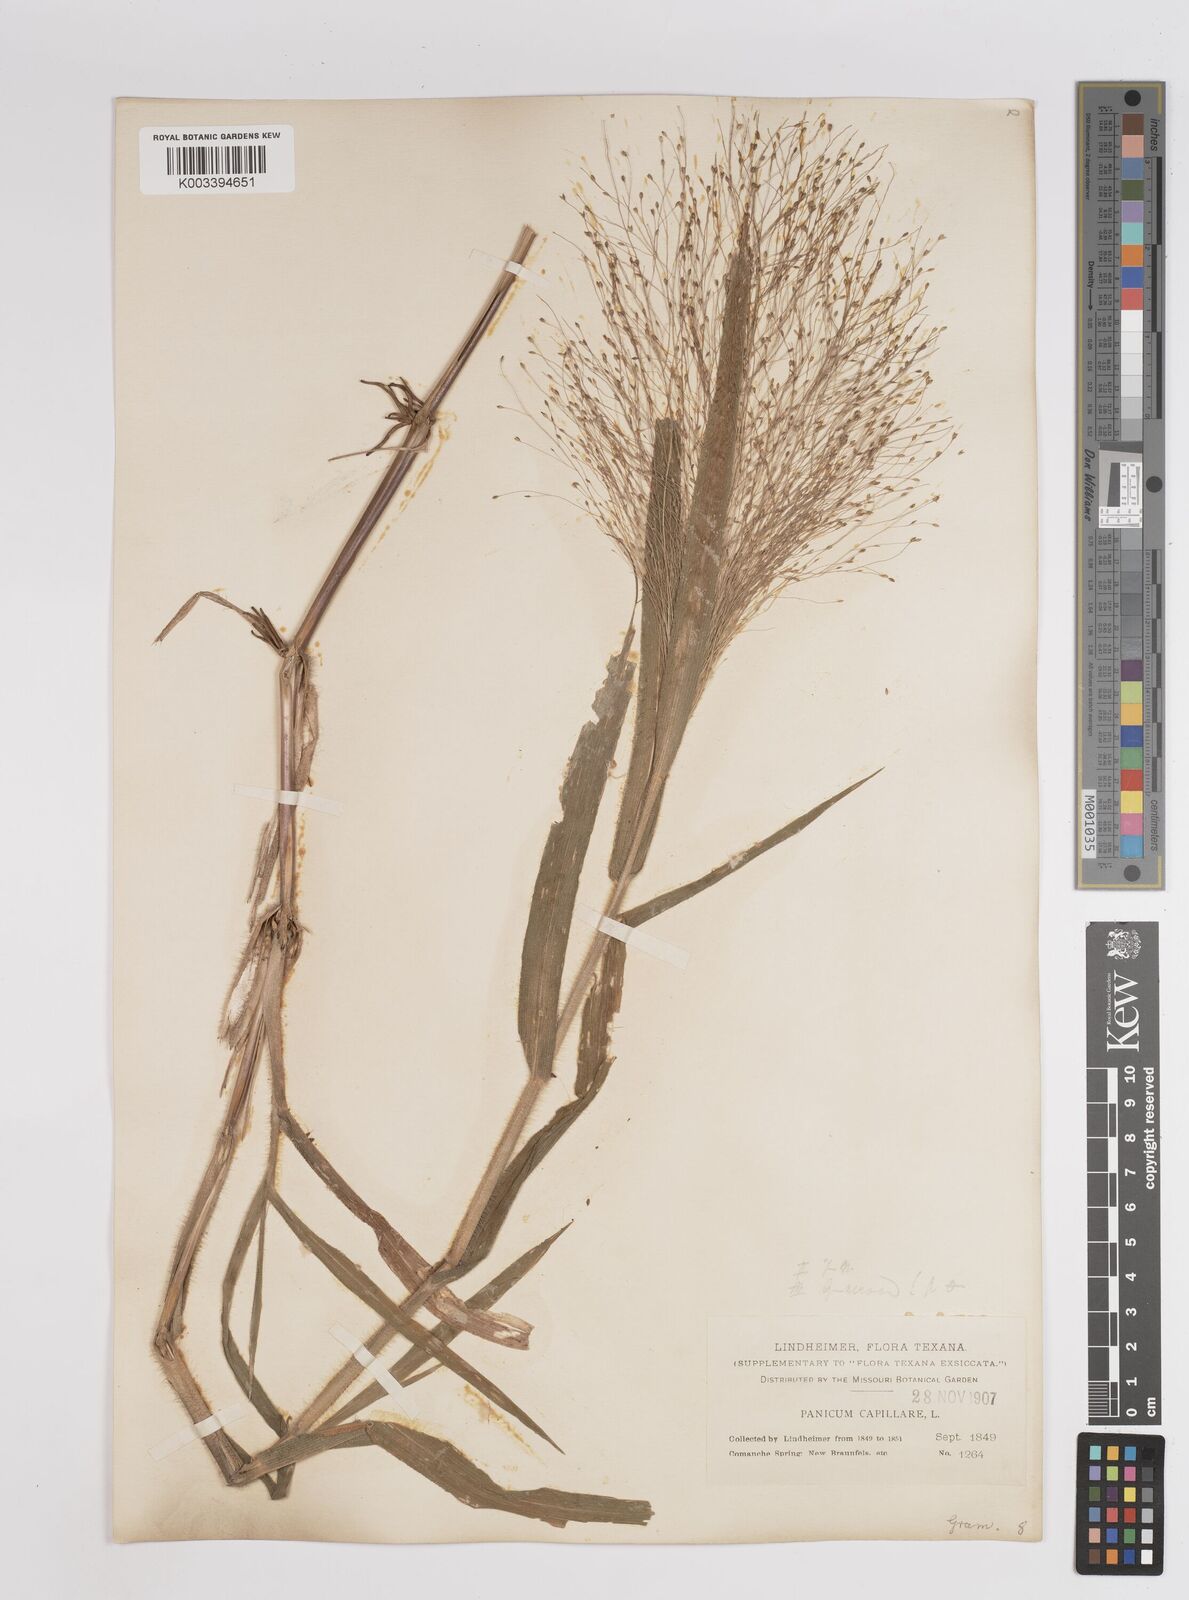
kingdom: Plantae
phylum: Tracheophyta
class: Liliopsida
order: Poales
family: Poaceae
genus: Panicum
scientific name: Panicum capillare
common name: Witch-grass
